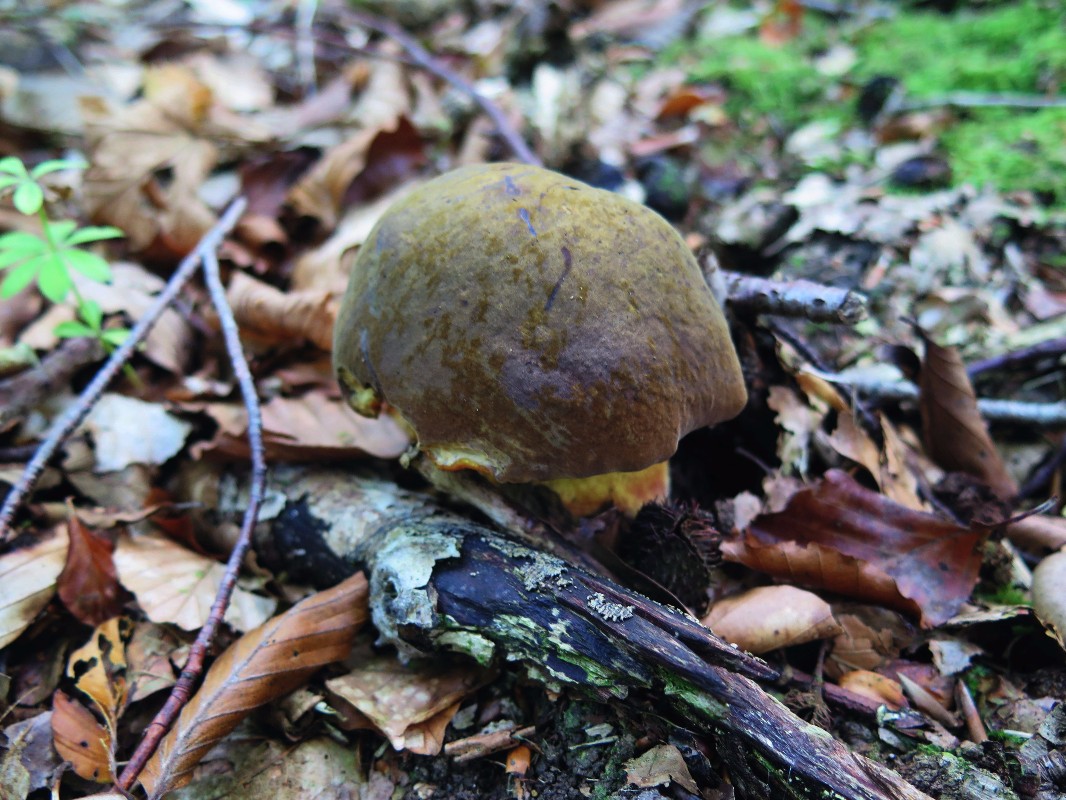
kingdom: Fungi
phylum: Basidiomycota
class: Agaricomycetes
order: Boletales
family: Boletaceae
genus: Suillellus
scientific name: Suillellus queletii
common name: glatstokket indigorørhat
